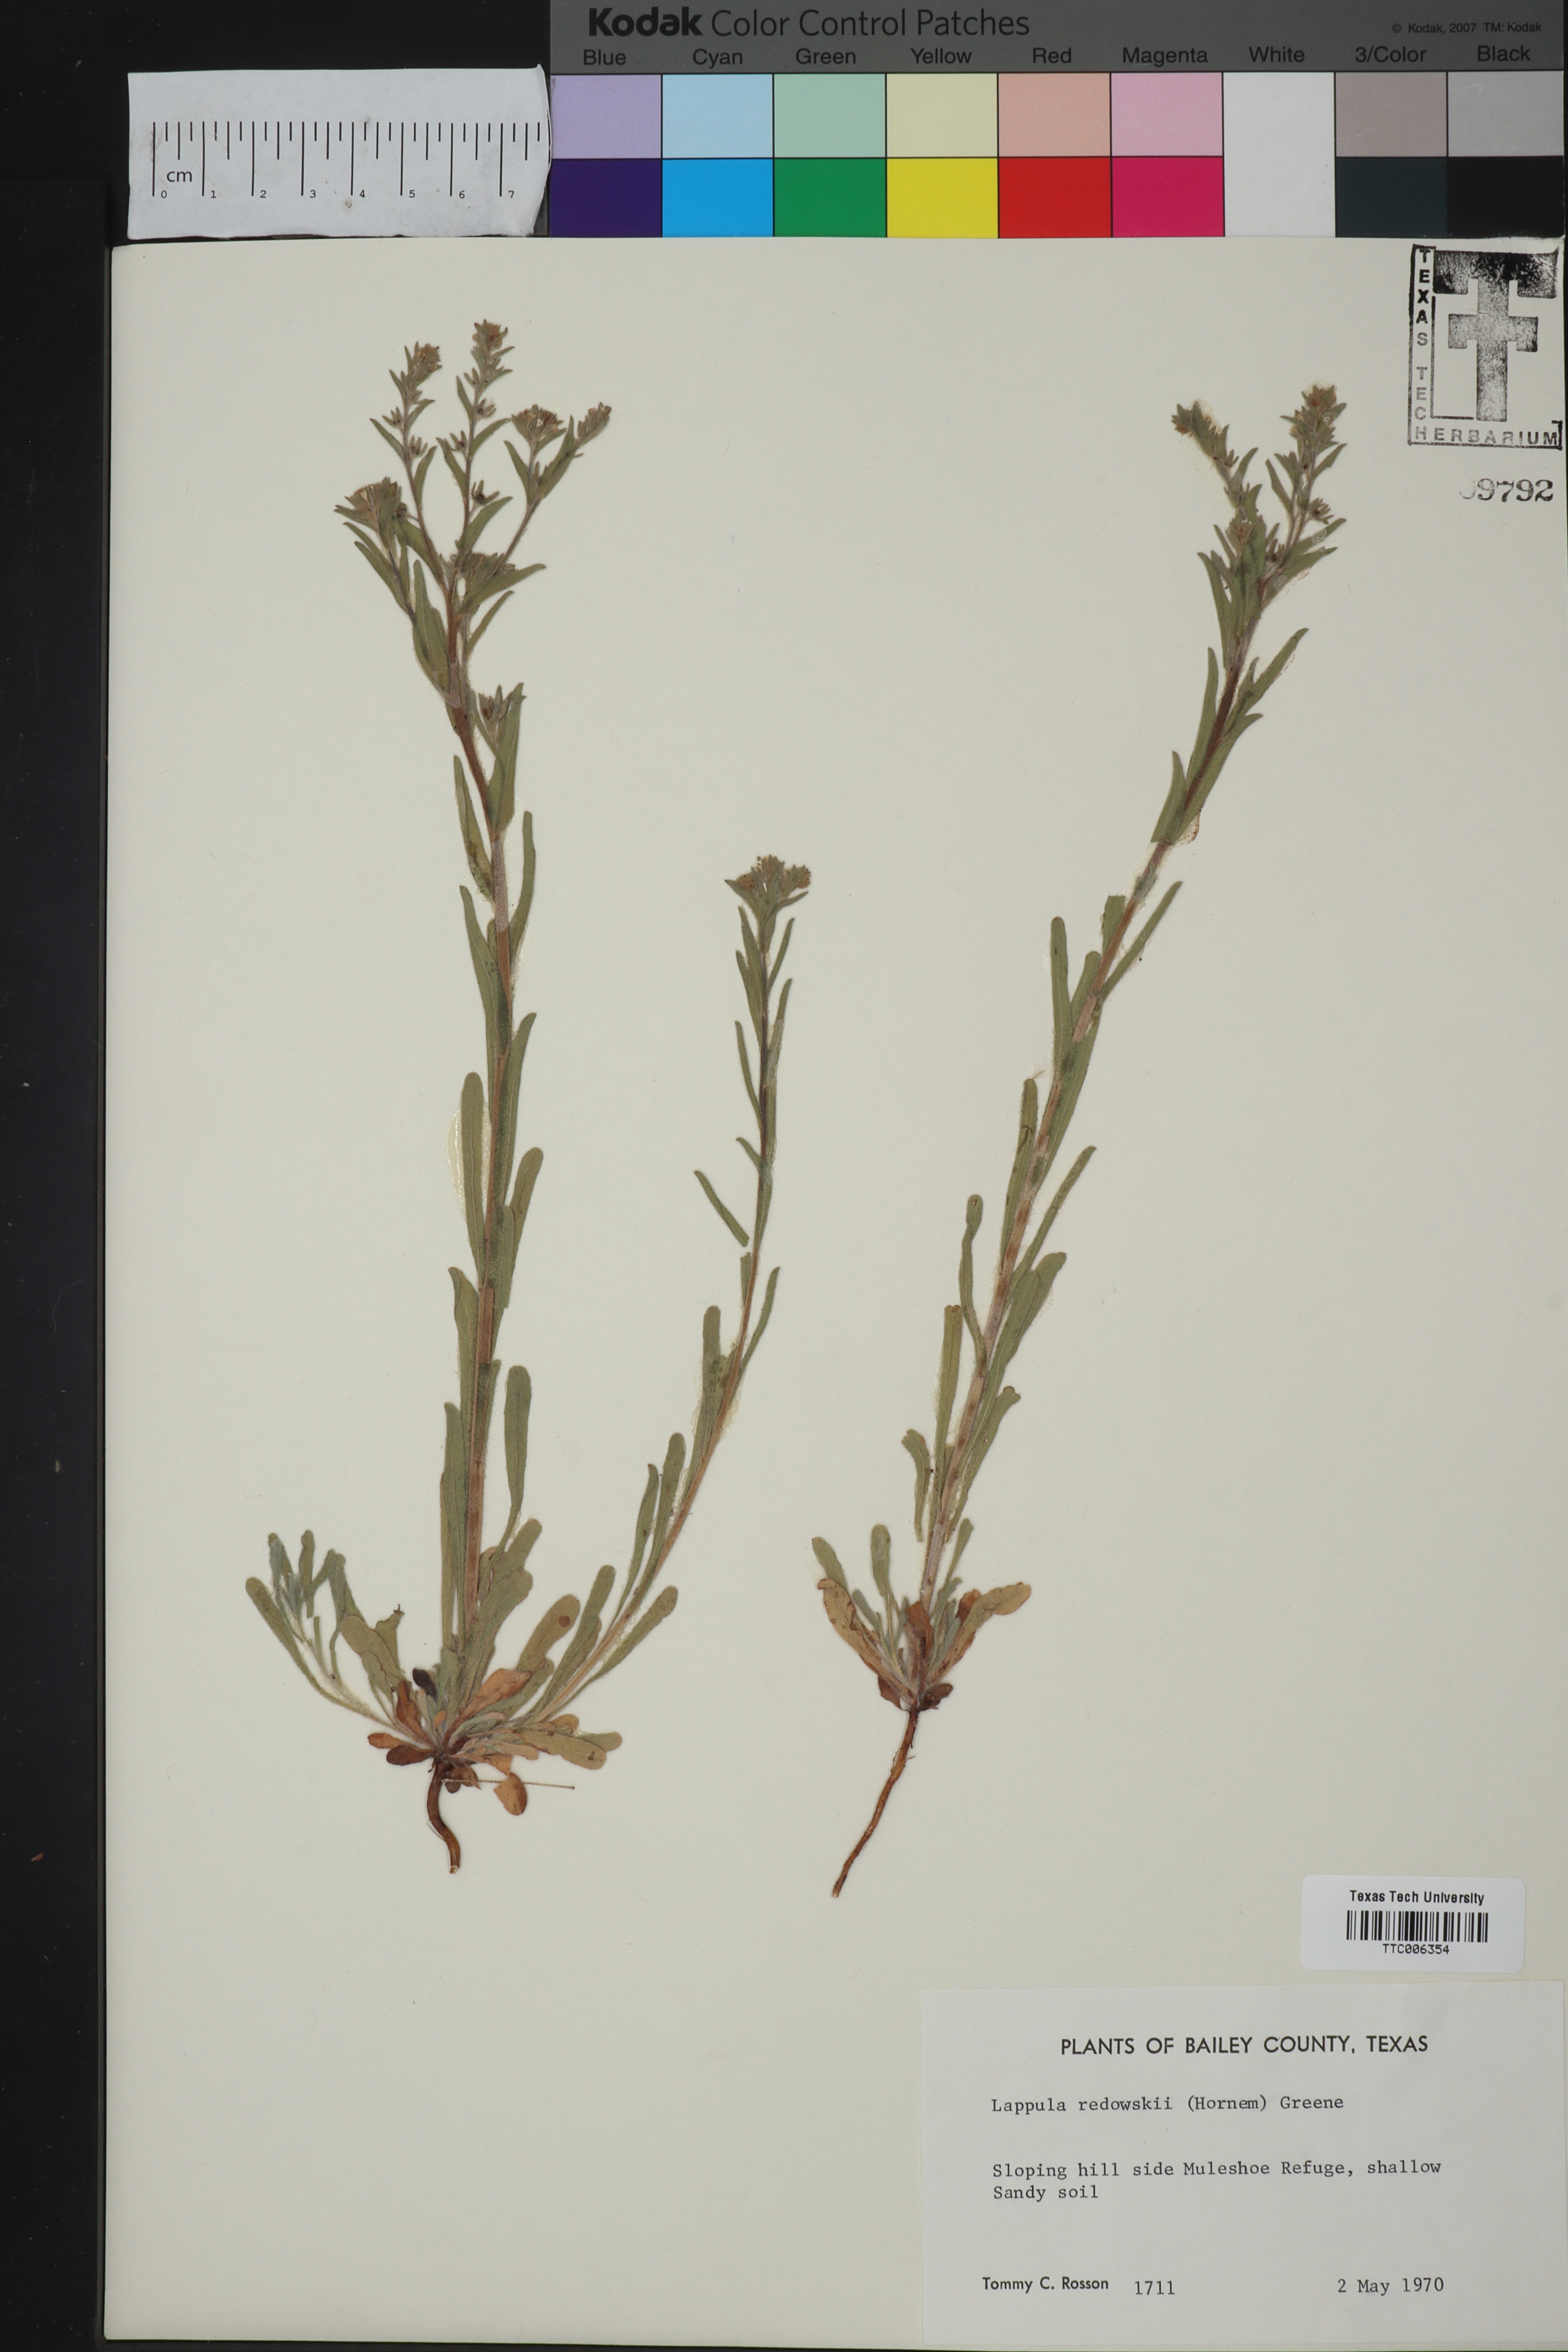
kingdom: Plantae
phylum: Tracheophyta
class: Magnoliopsida
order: Boraginales
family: Boraginaceae
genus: Lappula
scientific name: Lappula redowskii
